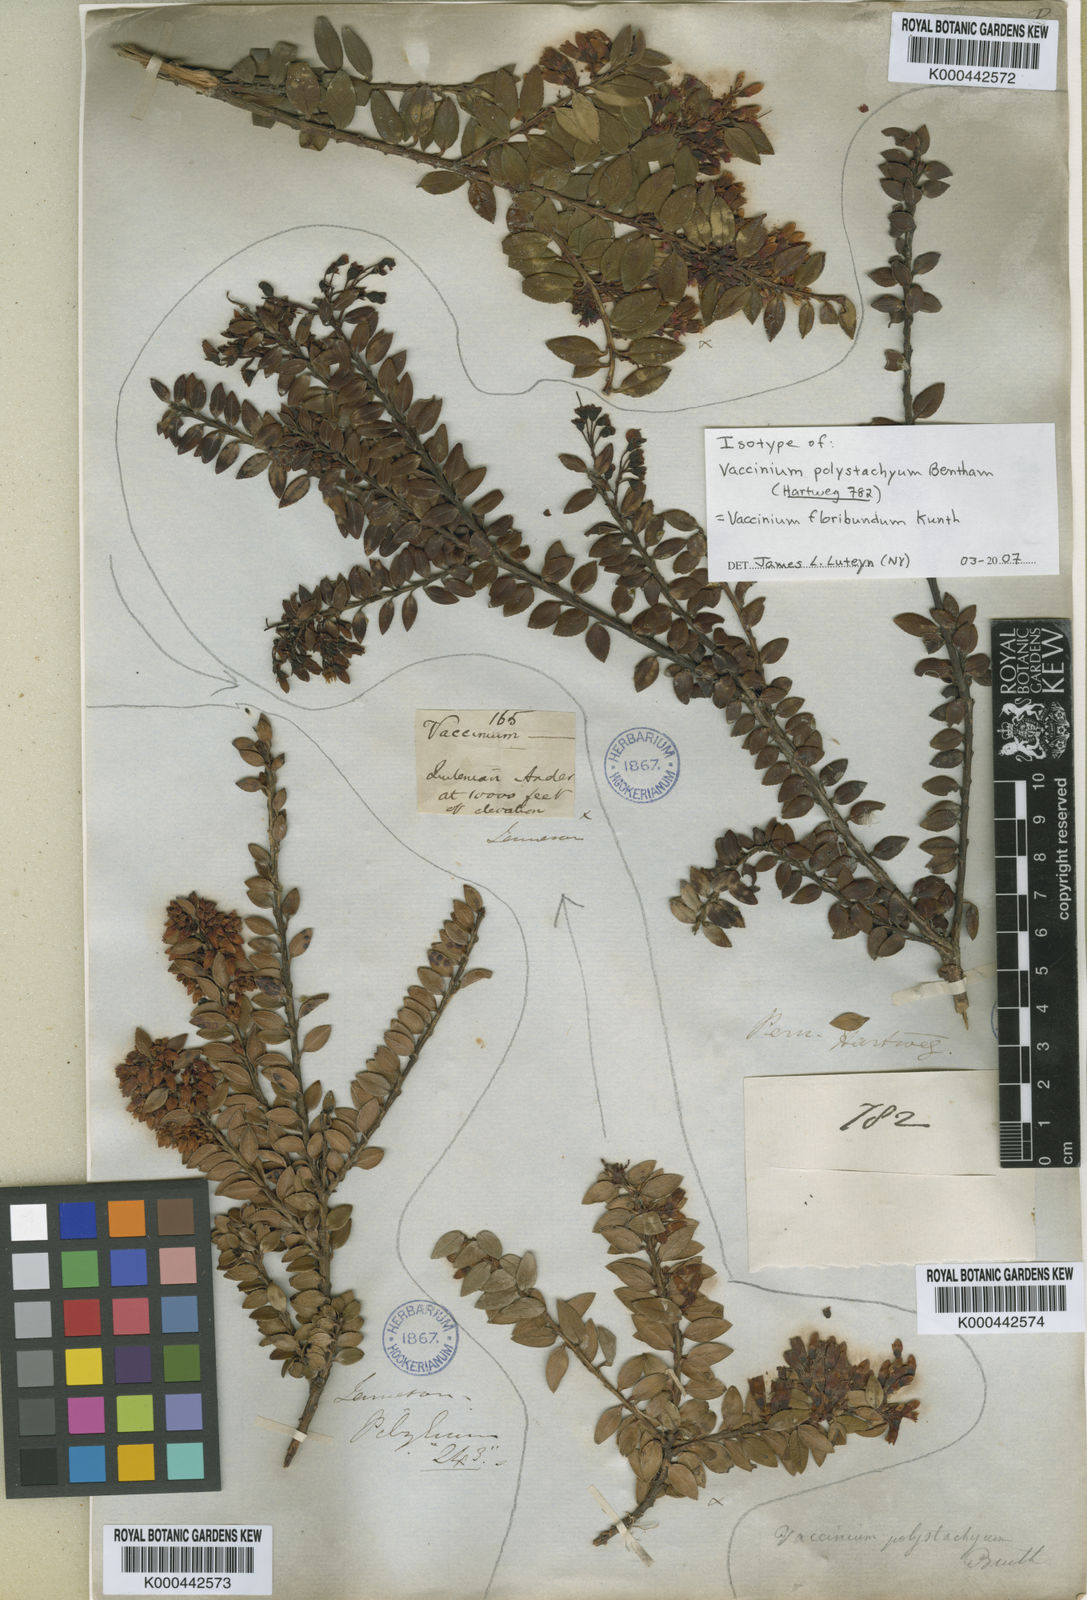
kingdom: Plantae
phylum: Tracheophyta
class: Magnoliopsida
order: Ericales
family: Ericaceae
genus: Vaccinium
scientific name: Vaccinium floribundum
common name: Colombian blueberry
